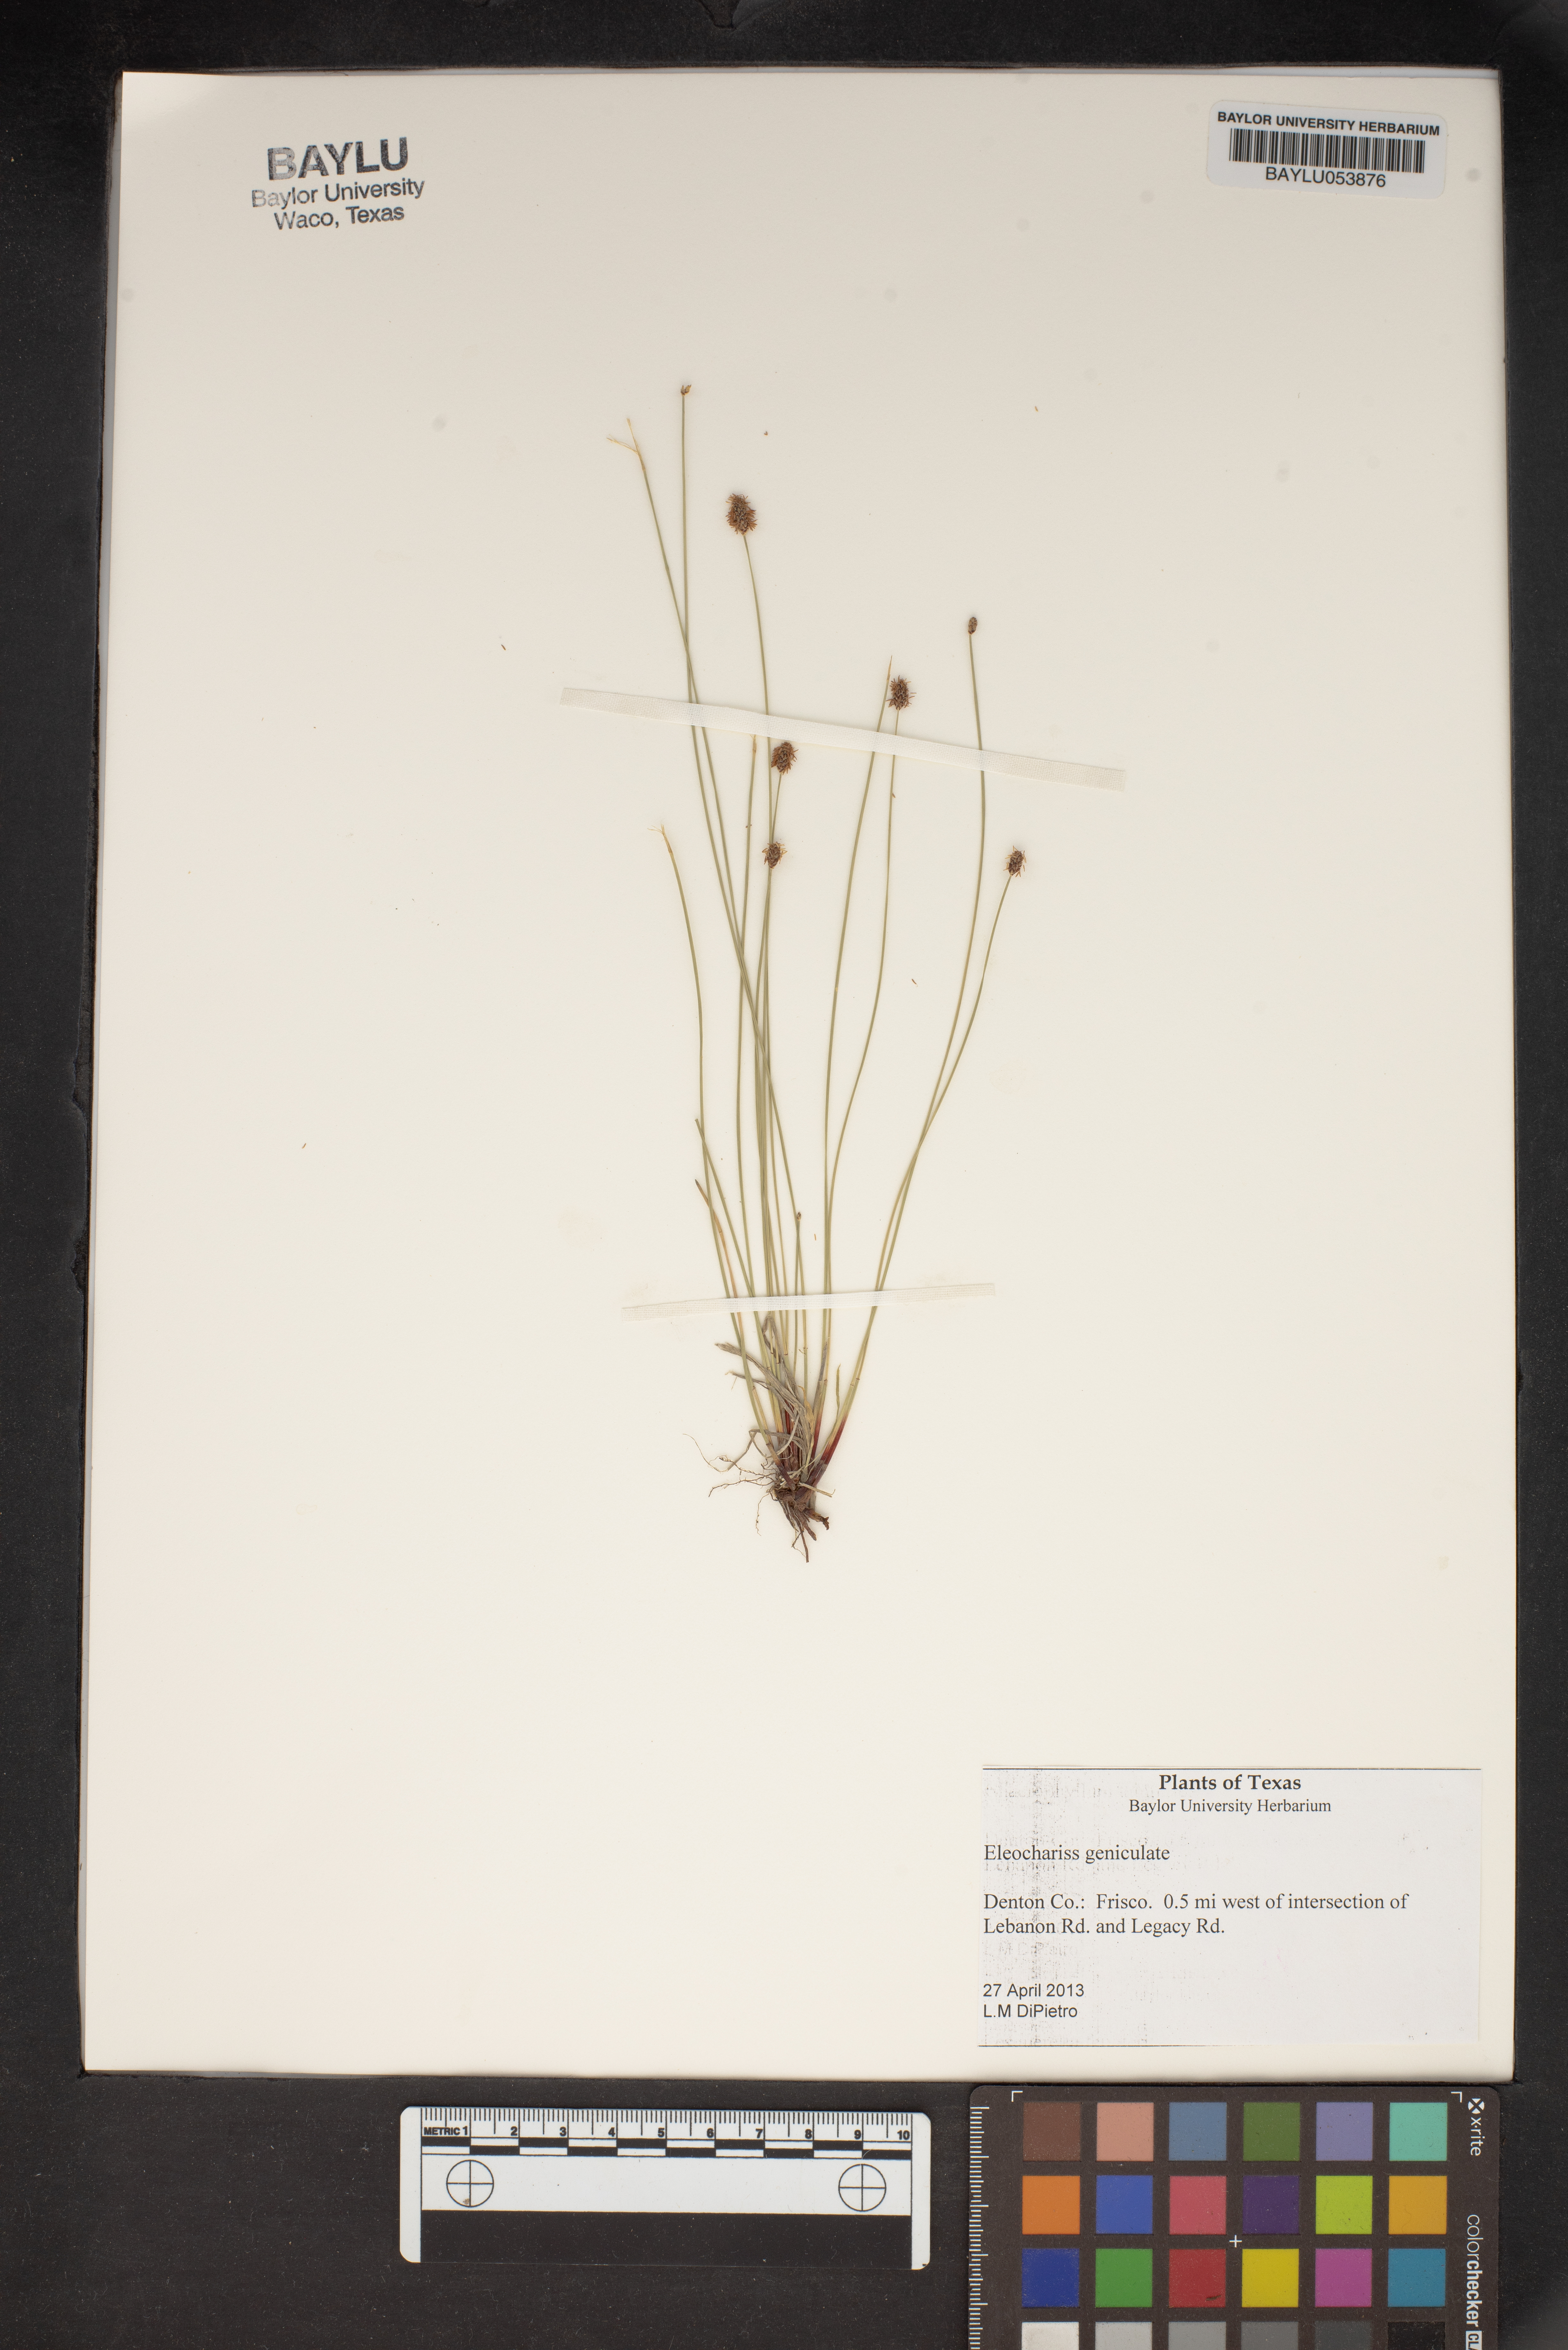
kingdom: Plantae
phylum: Tracheophyta
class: Liliopsida
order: Poales
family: Cyperaceae
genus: Eleocharis
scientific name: Eleocharis geniculata
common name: Canada spikesedge
